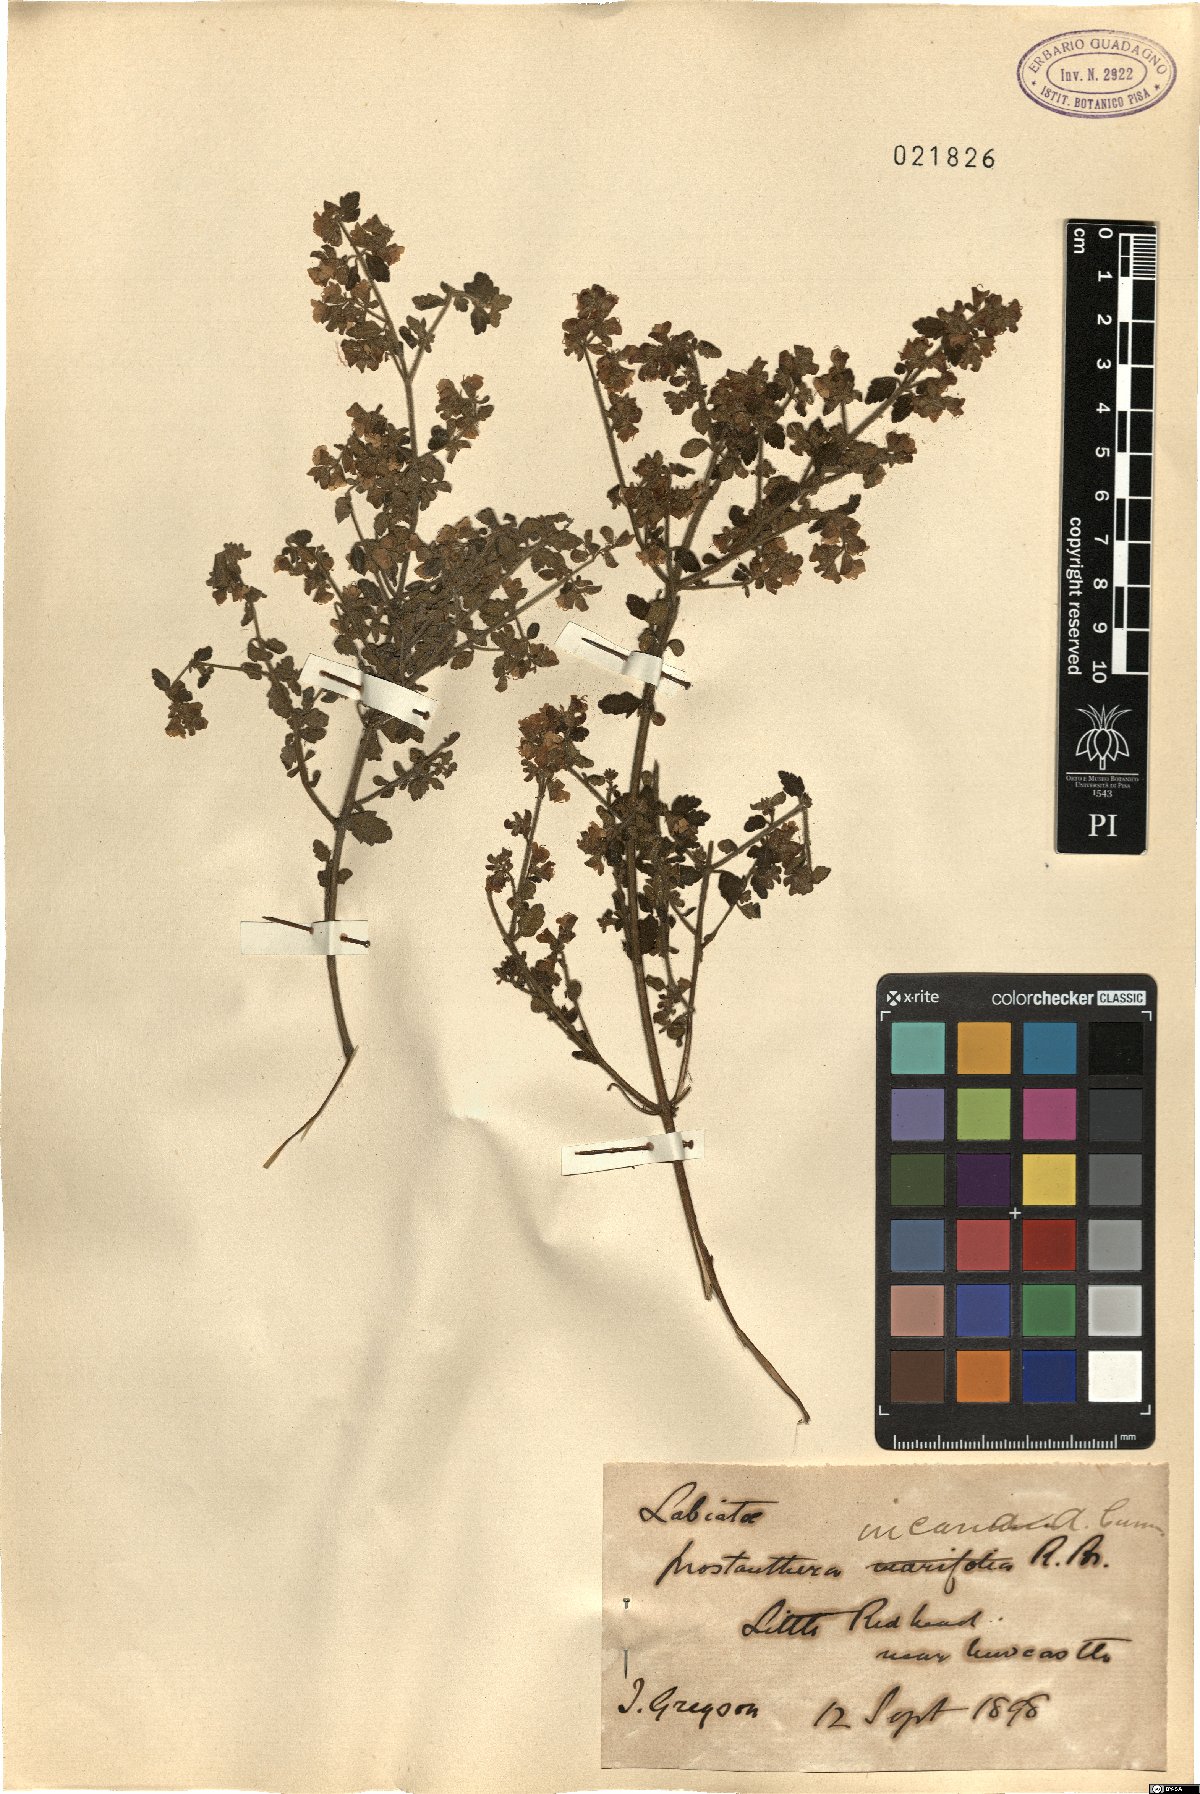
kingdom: Plantae
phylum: Tracheophyta
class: Magnoliopsida
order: Lamiales
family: Lamiaceae
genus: Prostanthera
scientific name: Prostanthera incana
